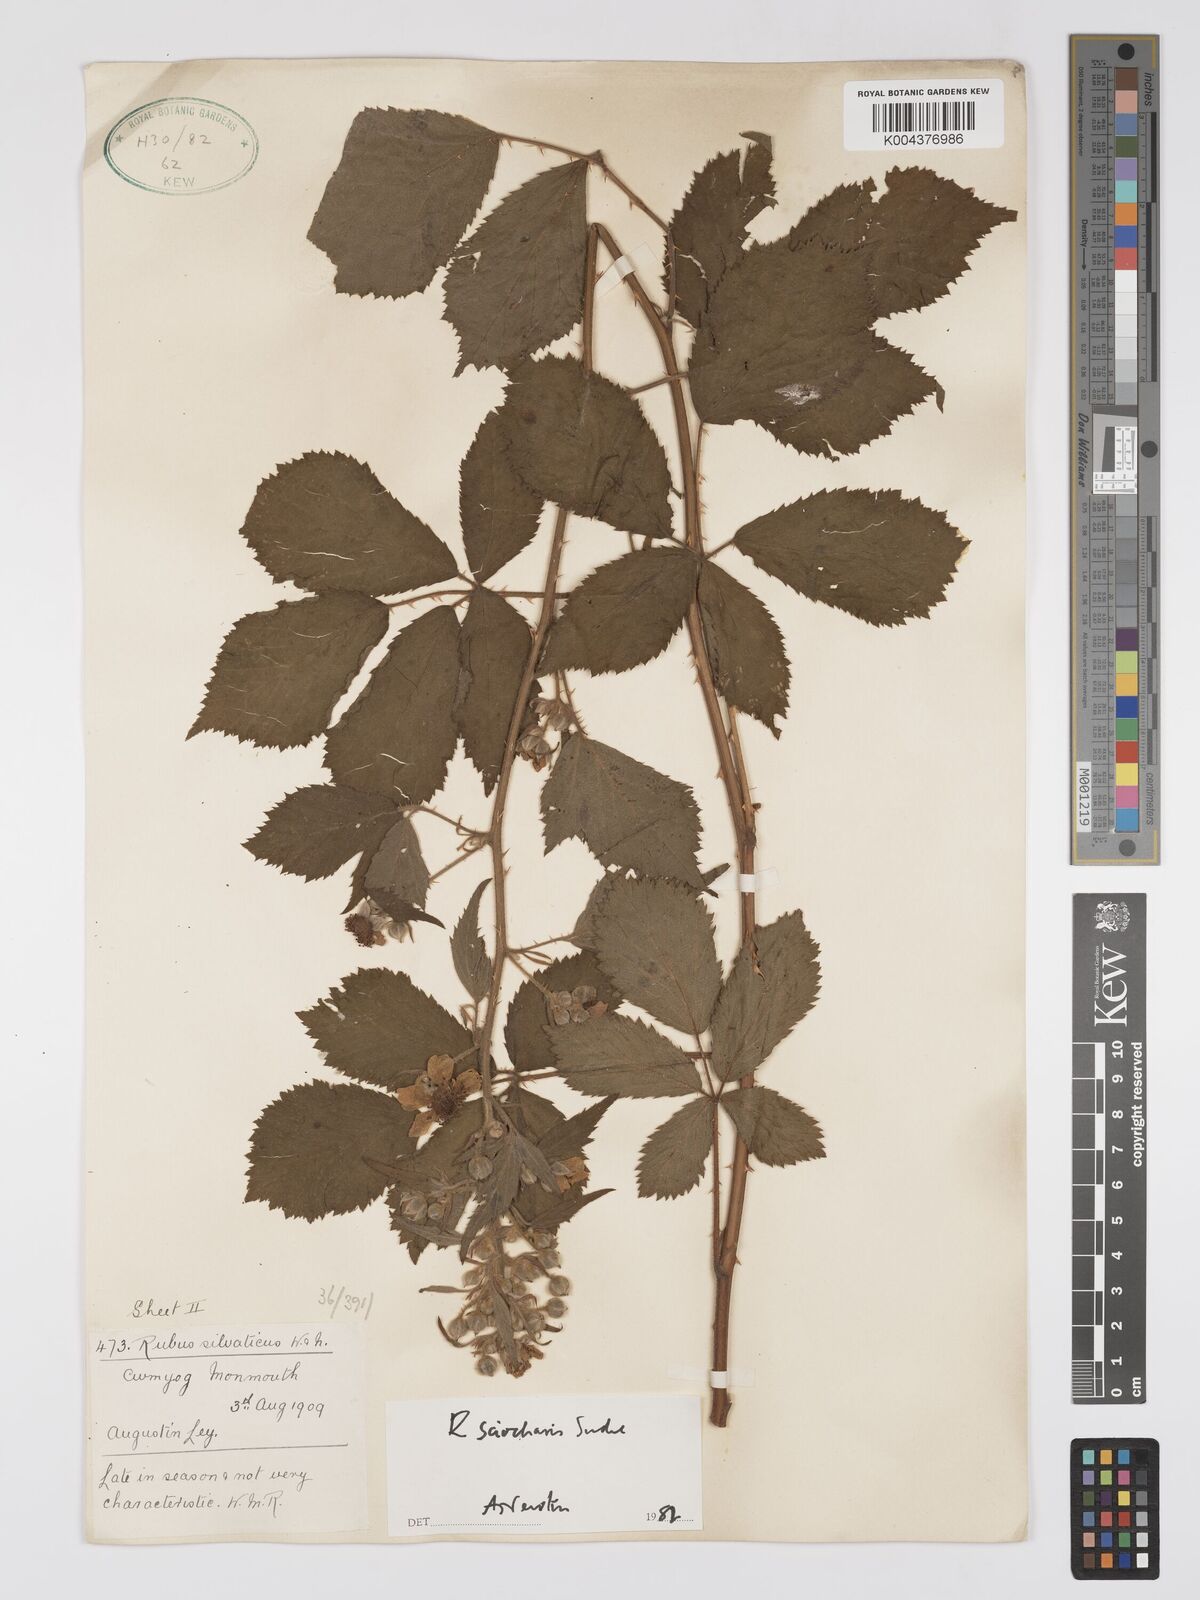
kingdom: Plantae
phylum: Tracheophyta
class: Magnoliopsida
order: Rosales
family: Rosaceae
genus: Rubus
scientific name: Rubus sciocharis
